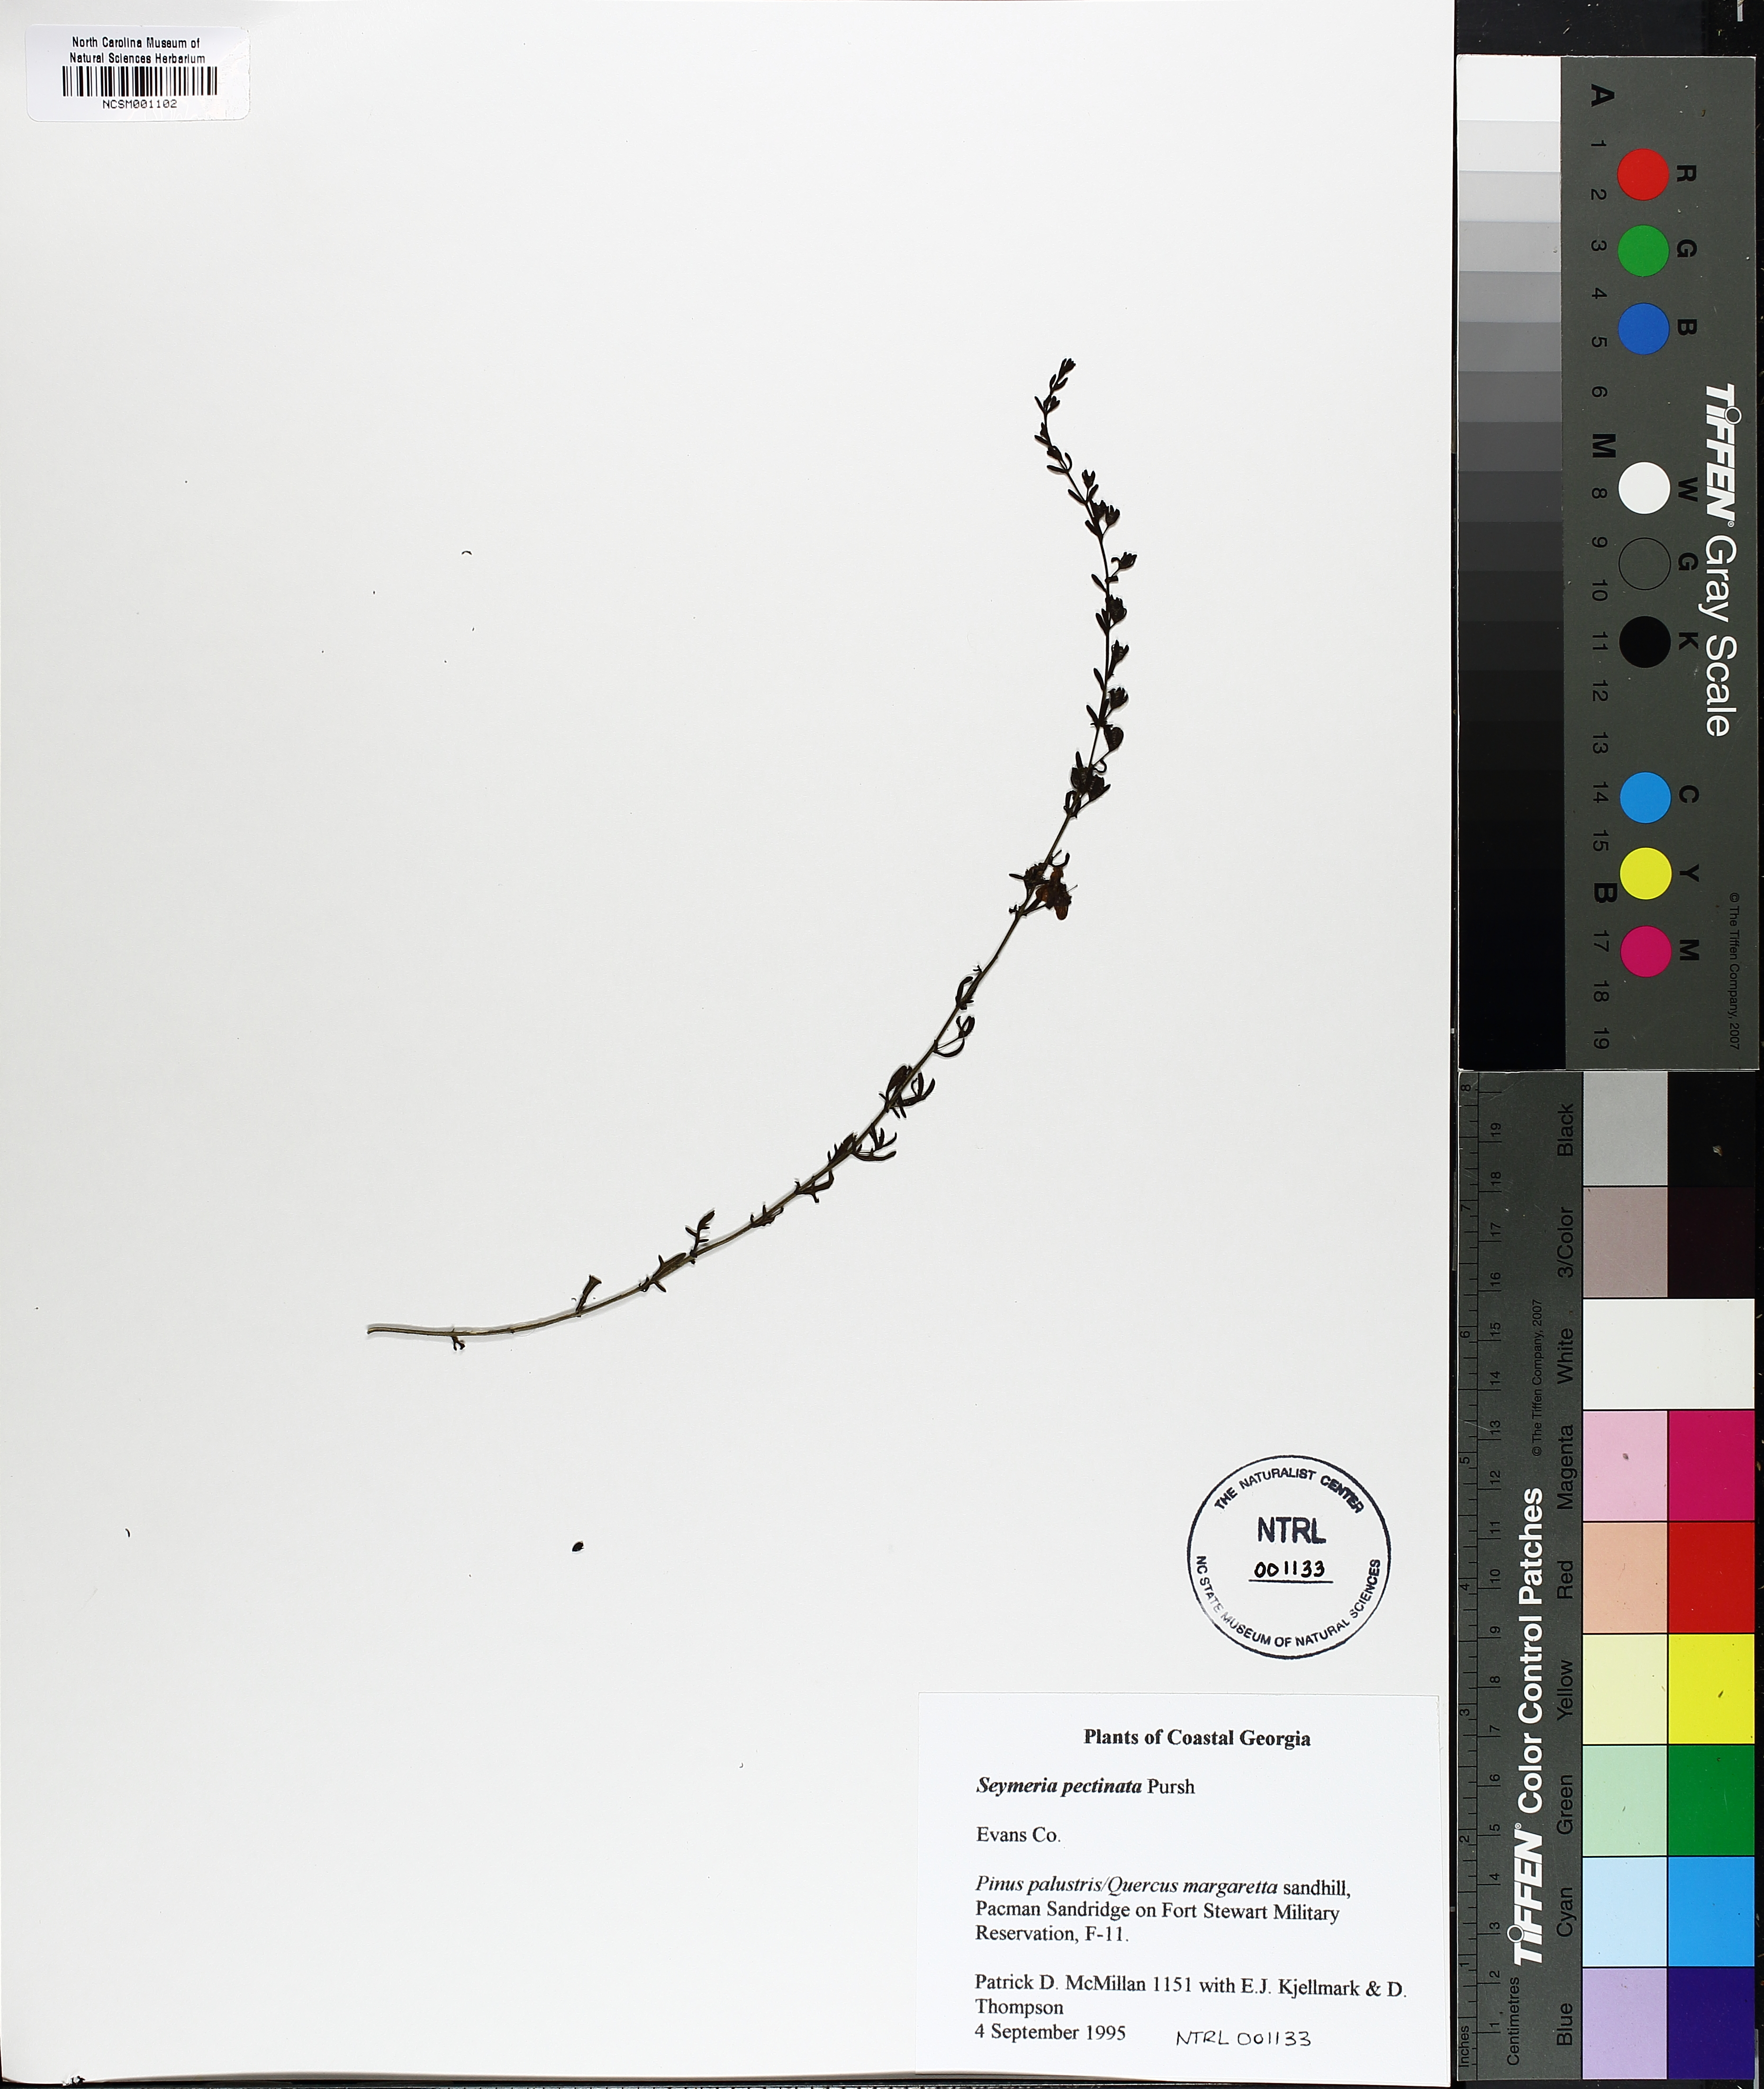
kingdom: Plantae
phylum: Tracheophyta
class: Magnoliopsida
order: Lamiales
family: Orobanchaceae
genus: Seymeria
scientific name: Seymeria pectinata
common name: Piedmont black-senna
